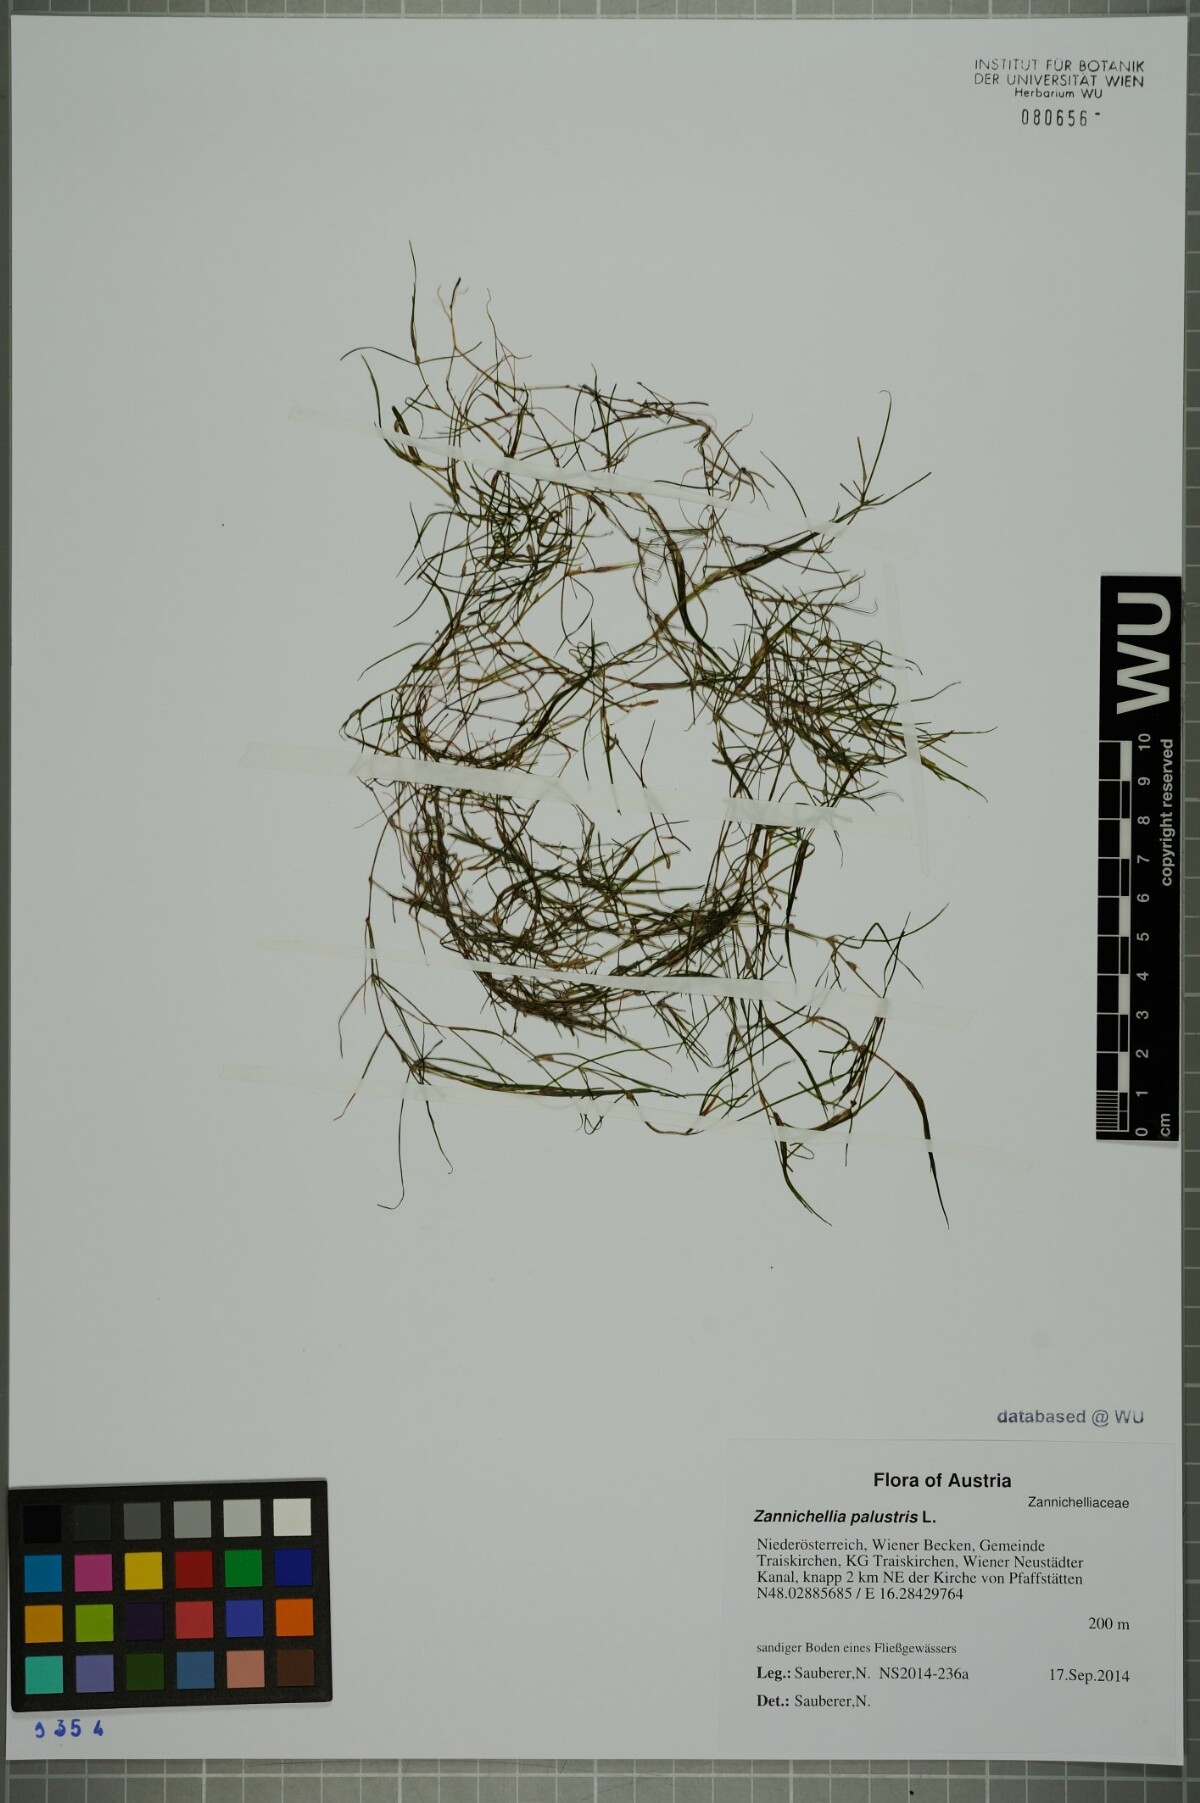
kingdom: Plantae
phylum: Tracheophyta
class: Liliopsida
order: Alismatales
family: Potamogetonaceae
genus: Zannichellia
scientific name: Zannichellia palustris
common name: Horned pondweed
